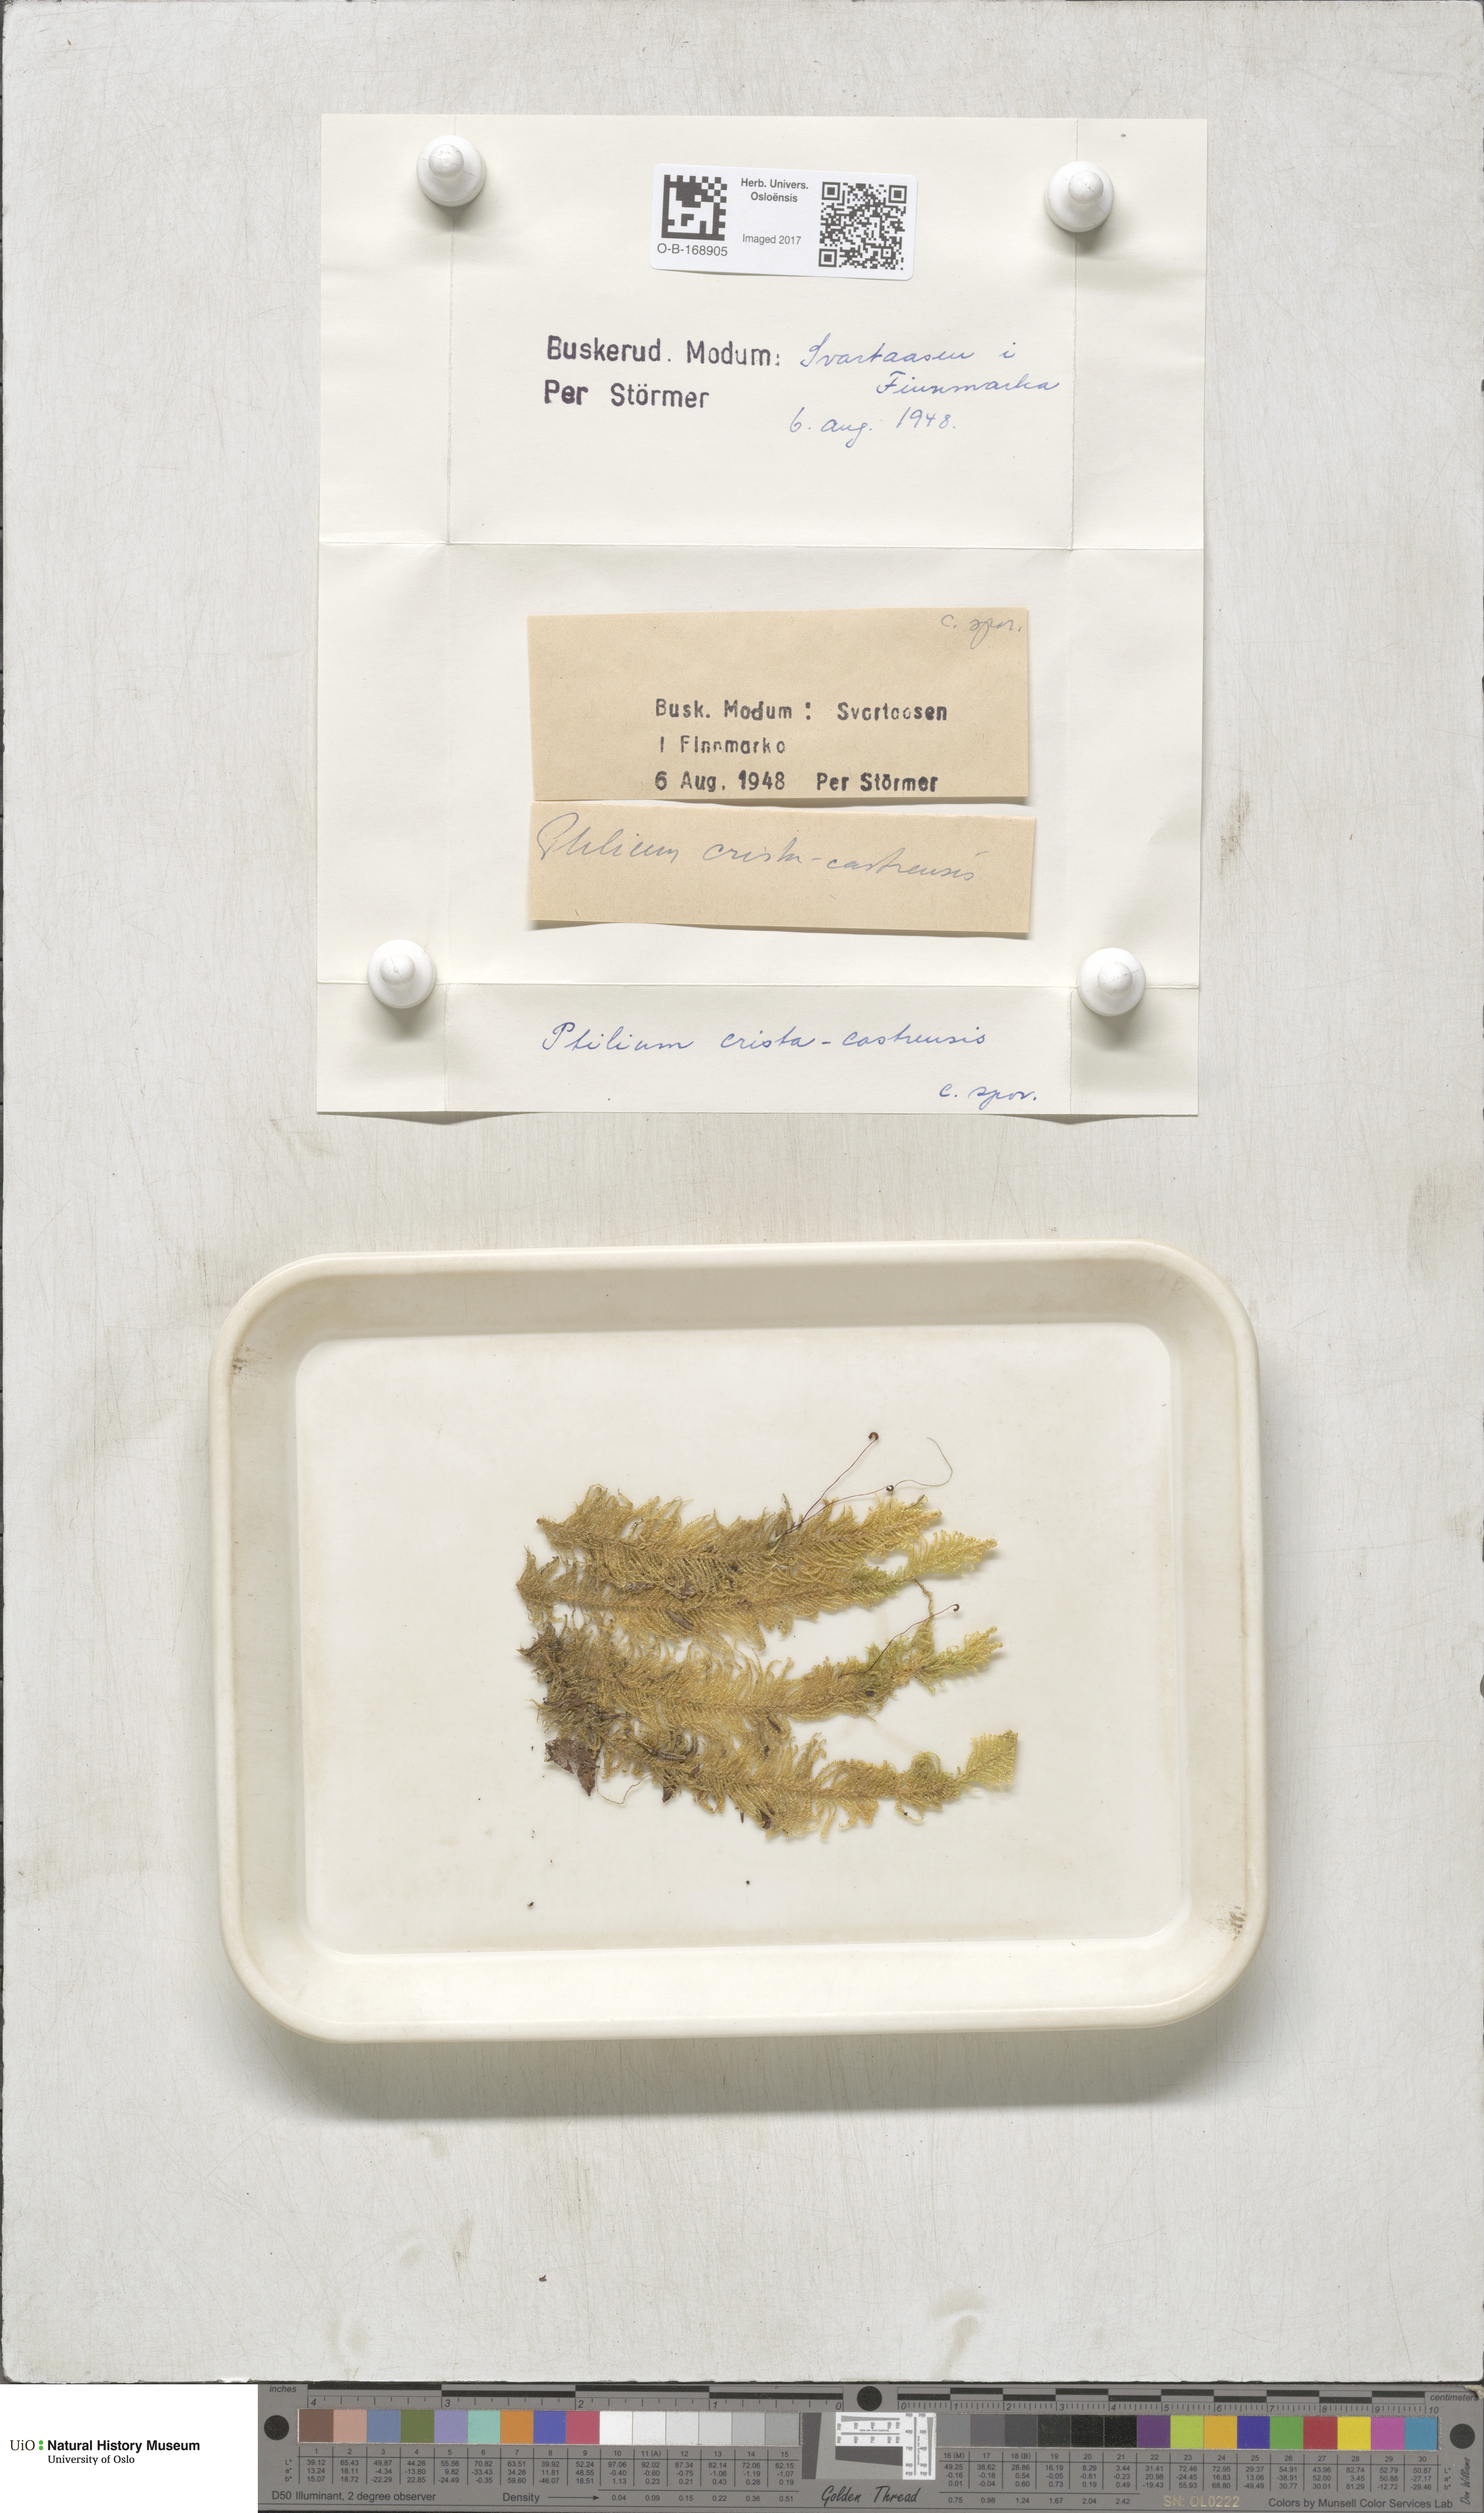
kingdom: Plantae
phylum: Bryophyta
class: Bryopsida
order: Hypnales
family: Pylaisiaceae
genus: Ptilium
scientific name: Ptilium crista-castrensis
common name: Knight's plume moss
